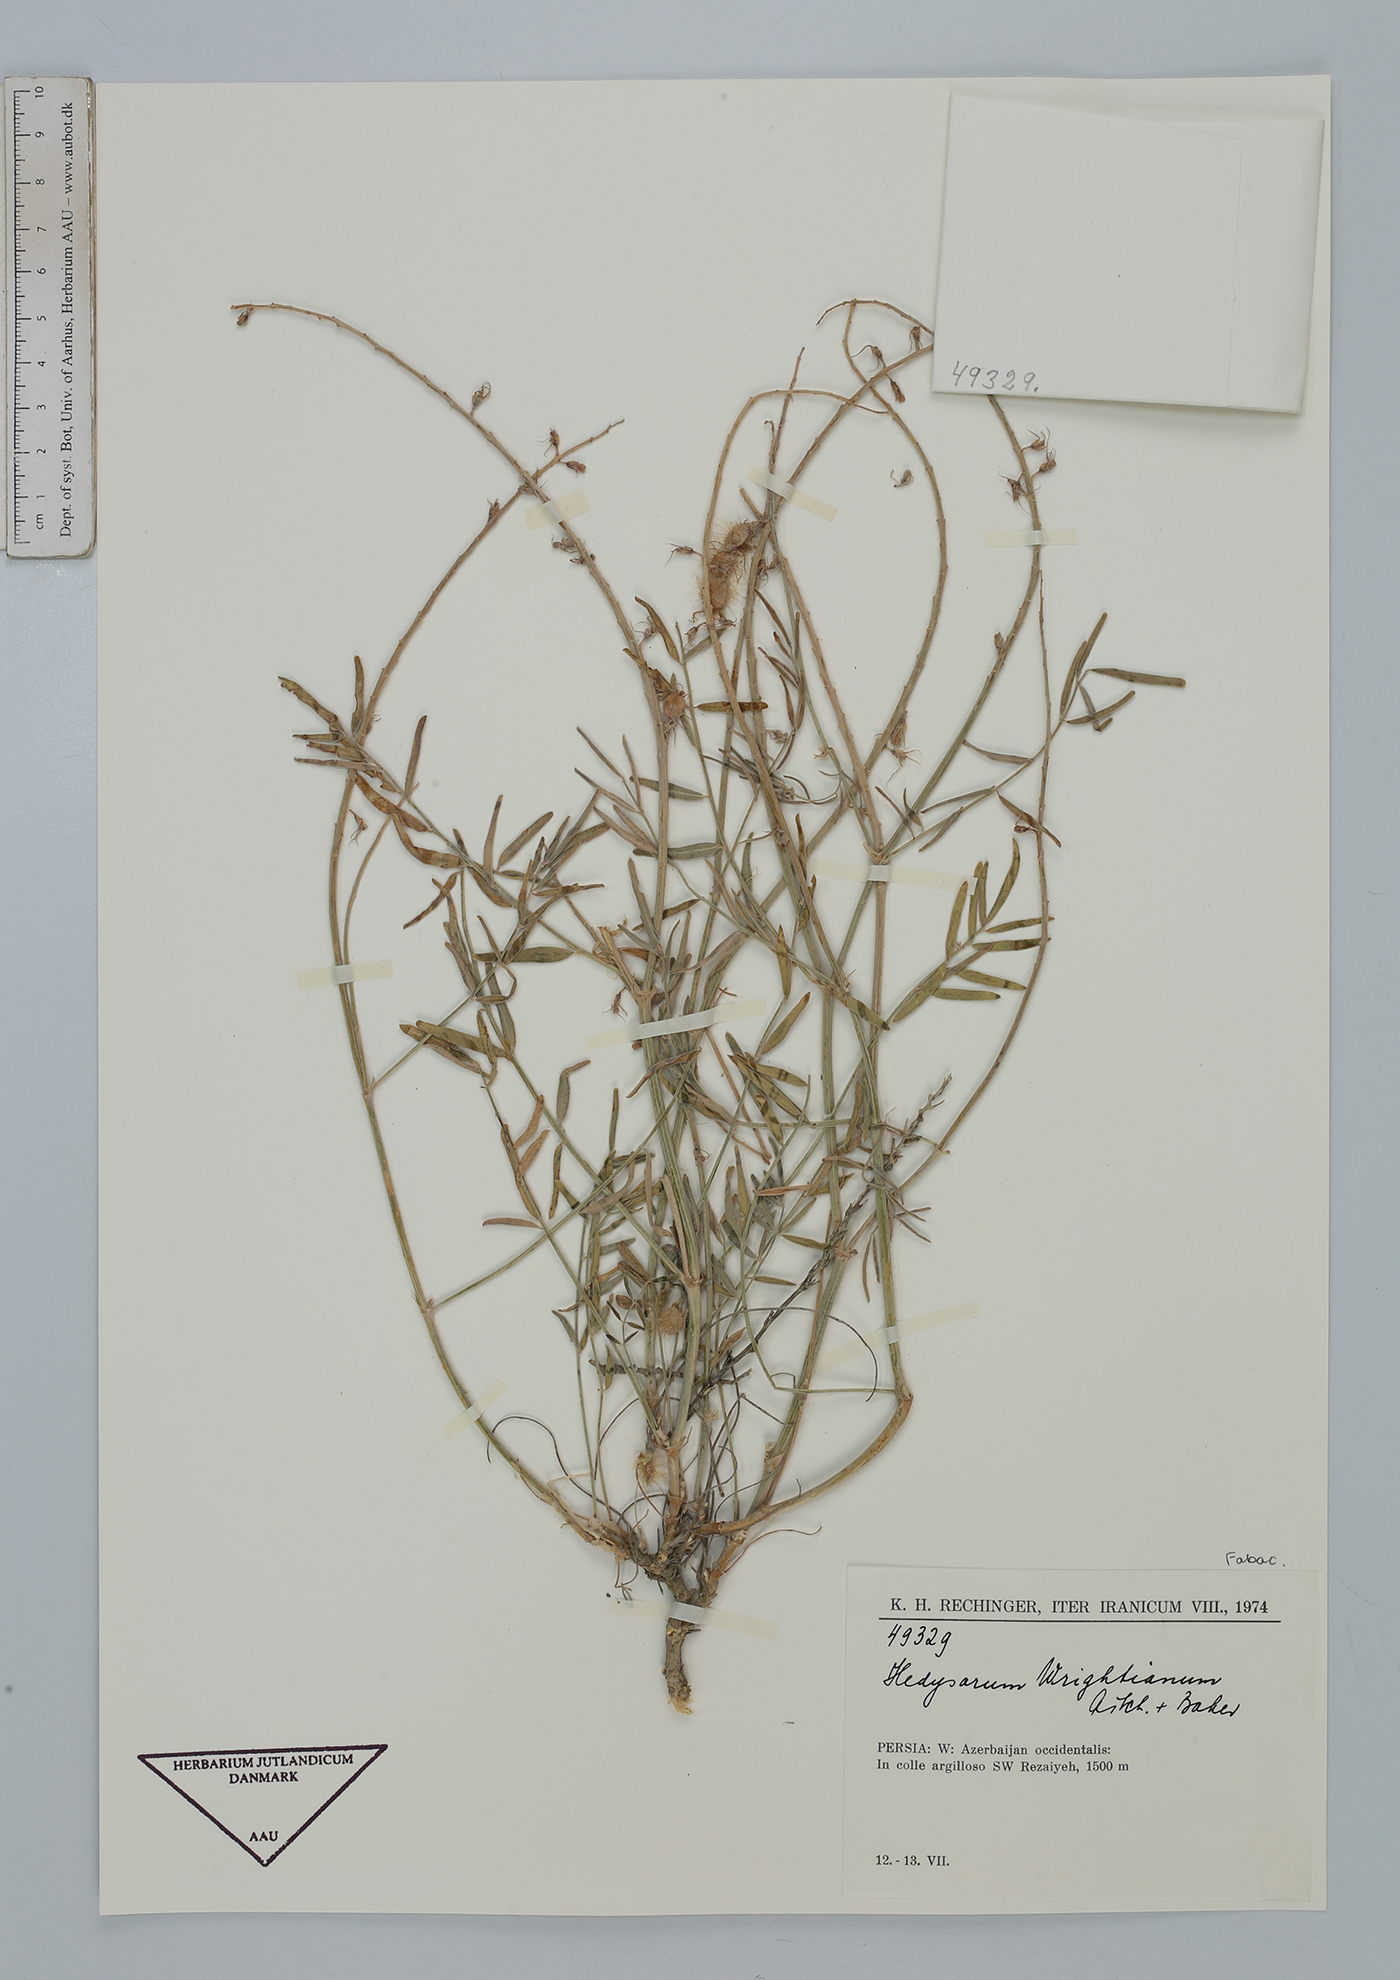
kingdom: Plantae
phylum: Tracheophyta
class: Magnoliopsida
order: Fabales
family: Fabaceae
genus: Hedysarum
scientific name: Hedysarum micropterum
